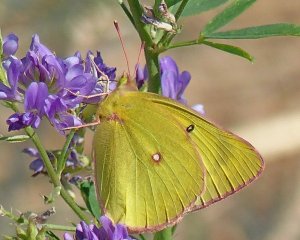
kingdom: Animalia
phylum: Arthropoda
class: Insecta
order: Lepidoptera
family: Pieridae
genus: Colias
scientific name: Colias interior
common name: Pink-edged Sulphur
